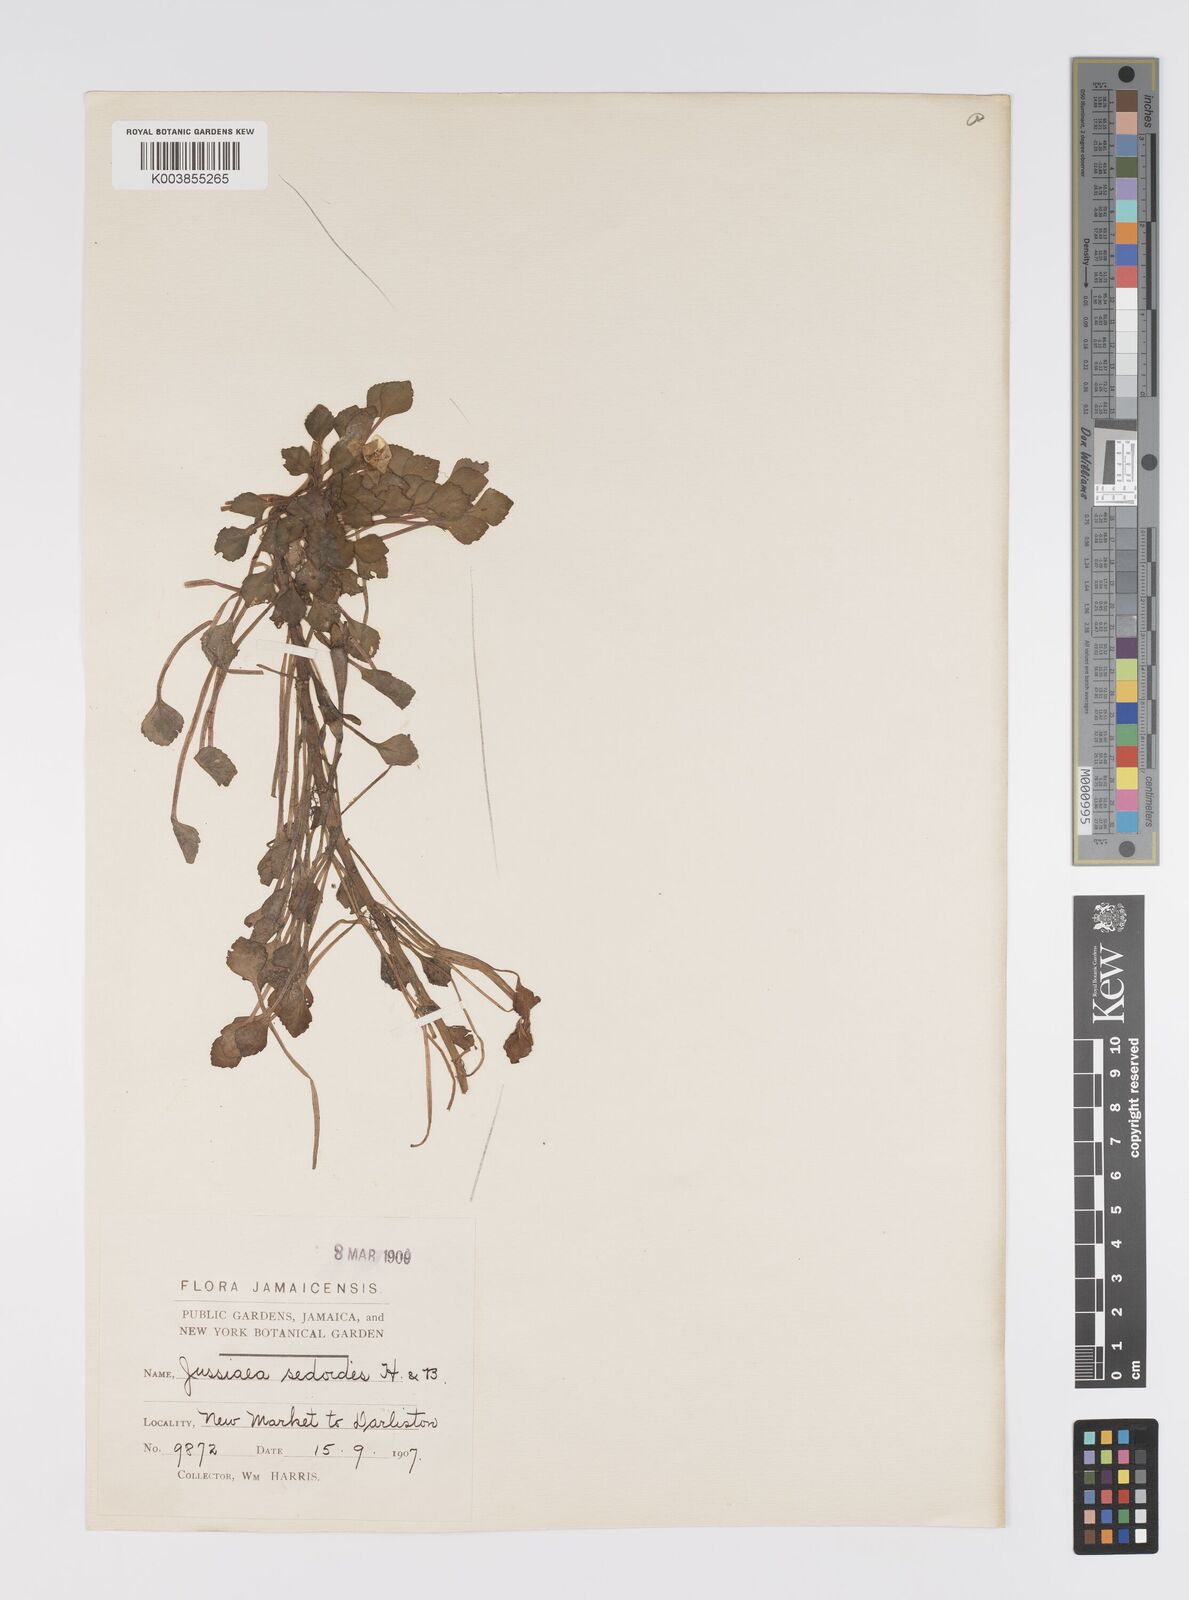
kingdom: Plantae
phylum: Tracheophyta
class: Magnoliopsida
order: Myrtales
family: Onagraceae
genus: Ludwigia
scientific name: Ludwigia sedoides
